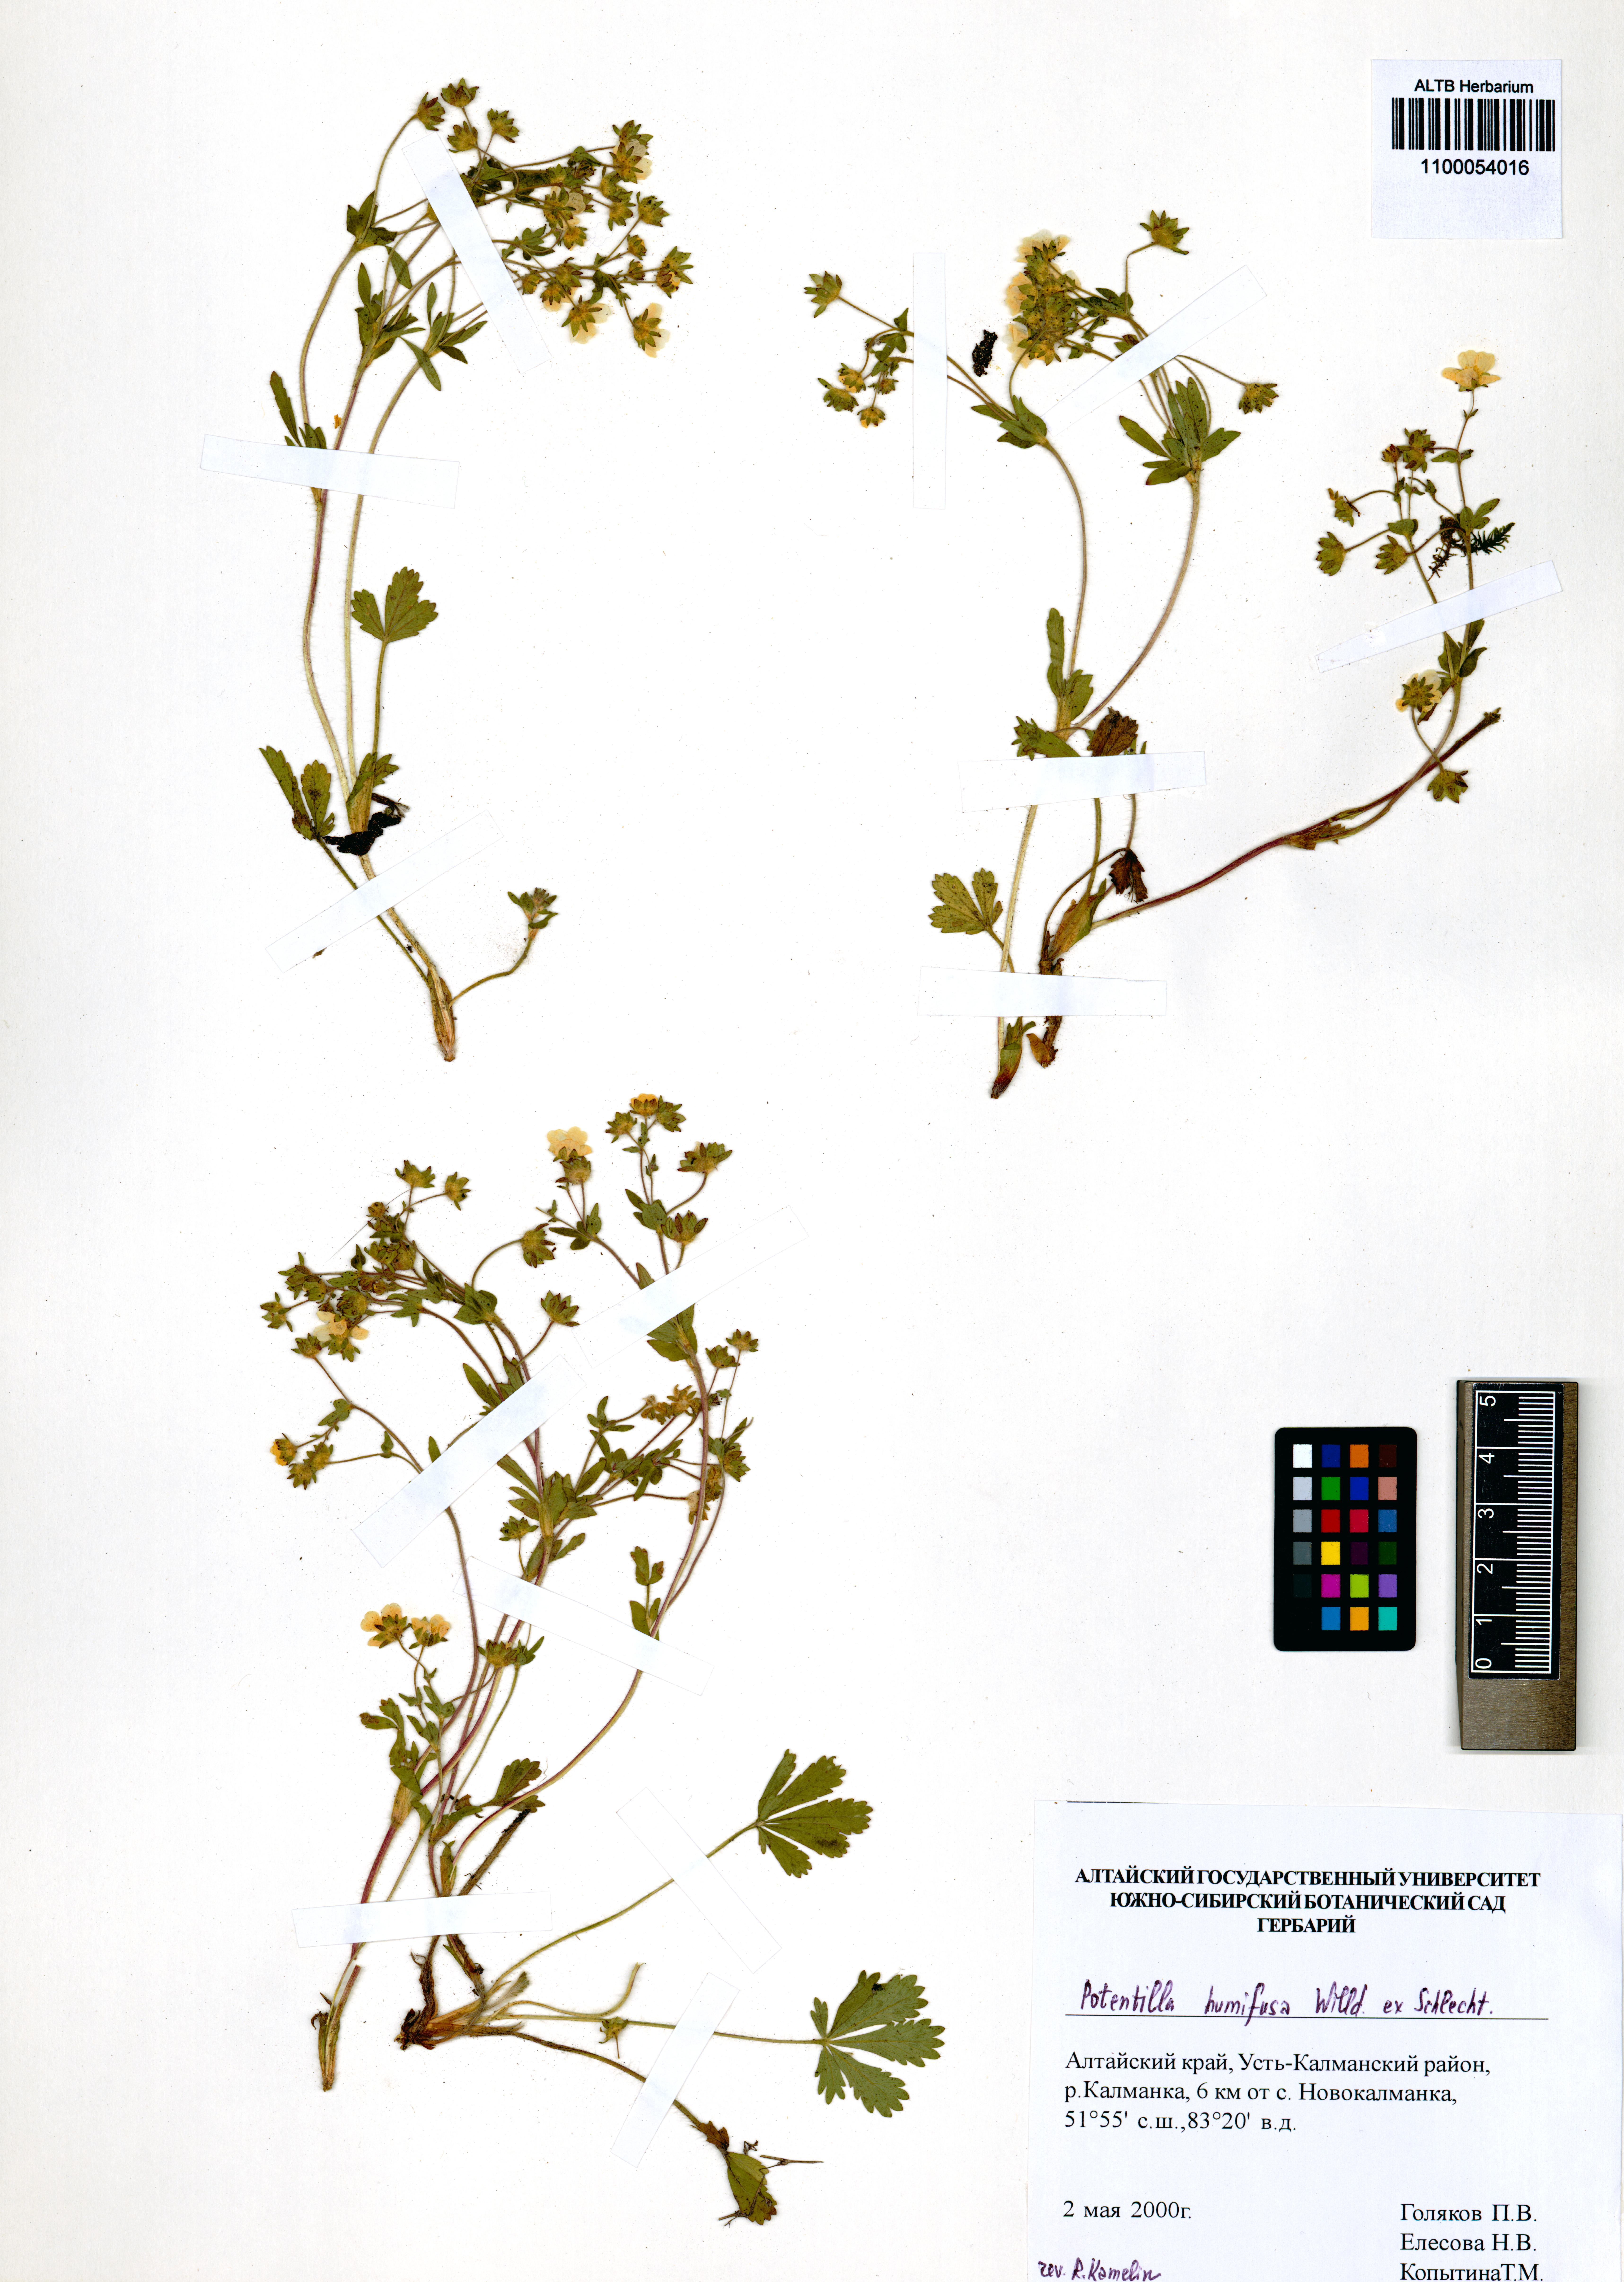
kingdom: Plantae
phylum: Tracheophyta
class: Magnoliopsida
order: Rosales
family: Rosaceae
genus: Potentilla
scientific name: Potentilla humifusa
